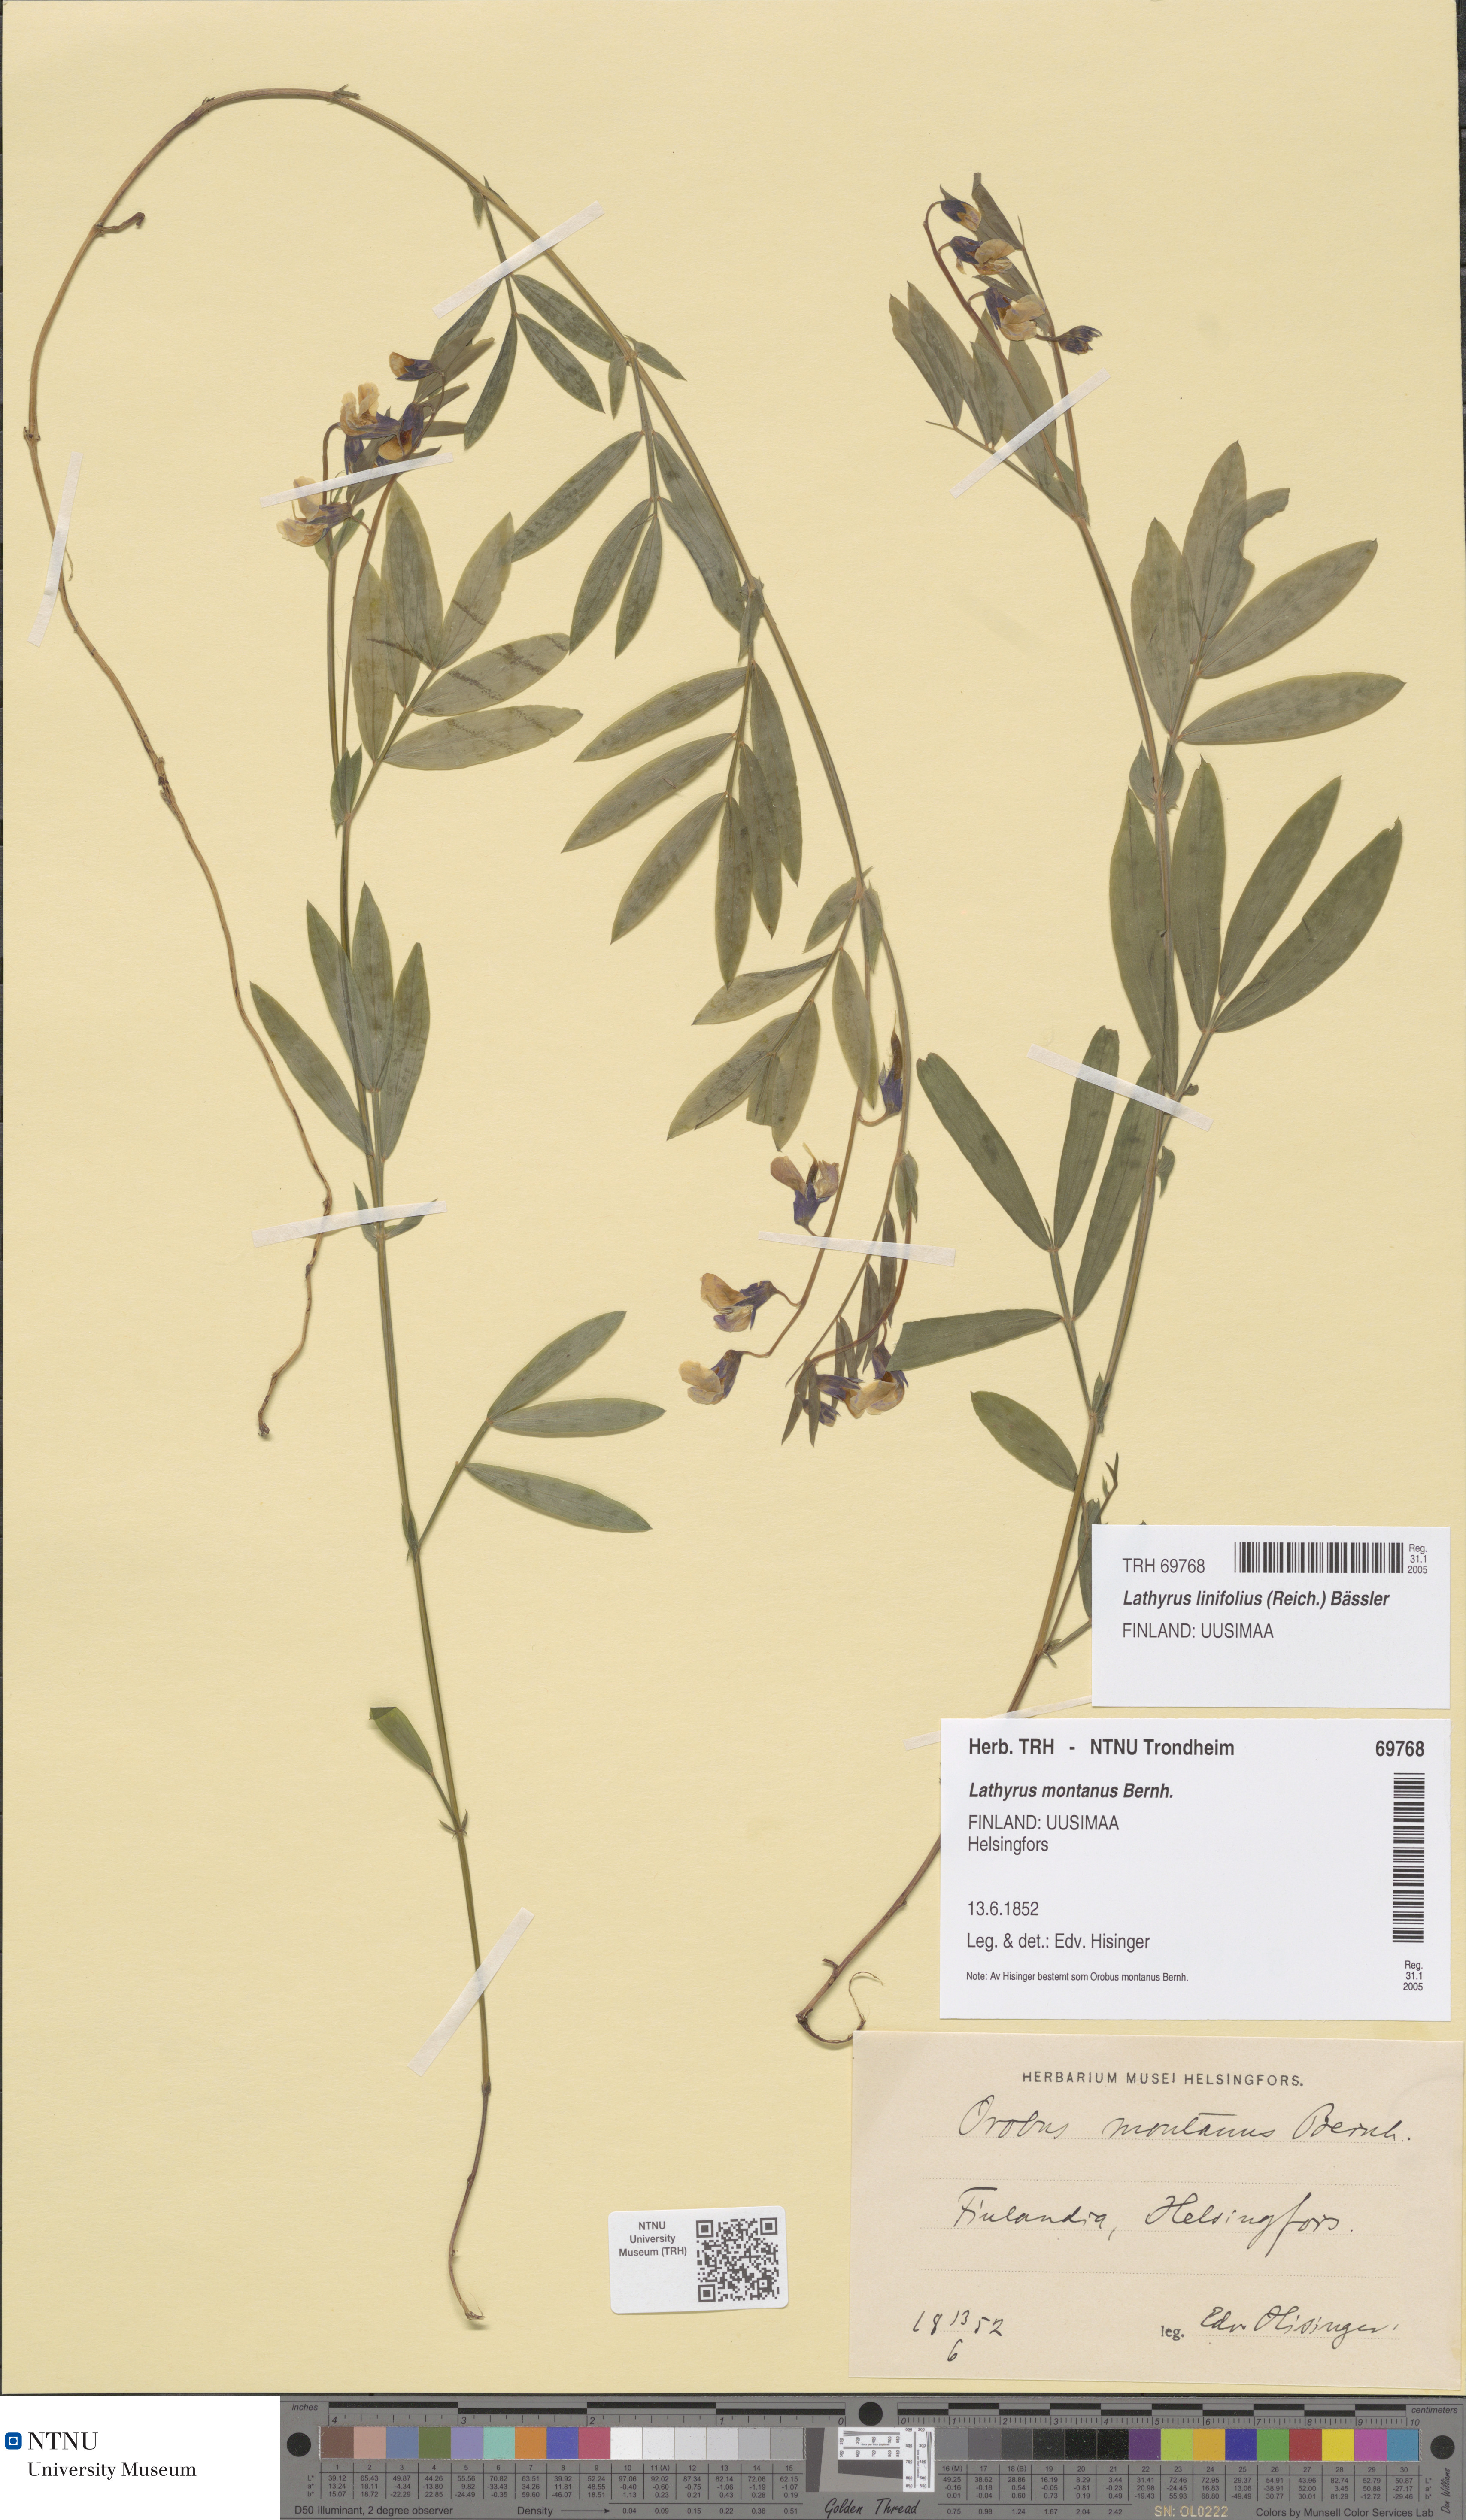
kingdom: Plantae
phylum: Tracheophyta
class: Magnoliopsida
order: Fabales
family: Fabaceae
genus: Lathyrus
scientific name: Lathyrus linifolius
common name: Bitter-vetch
